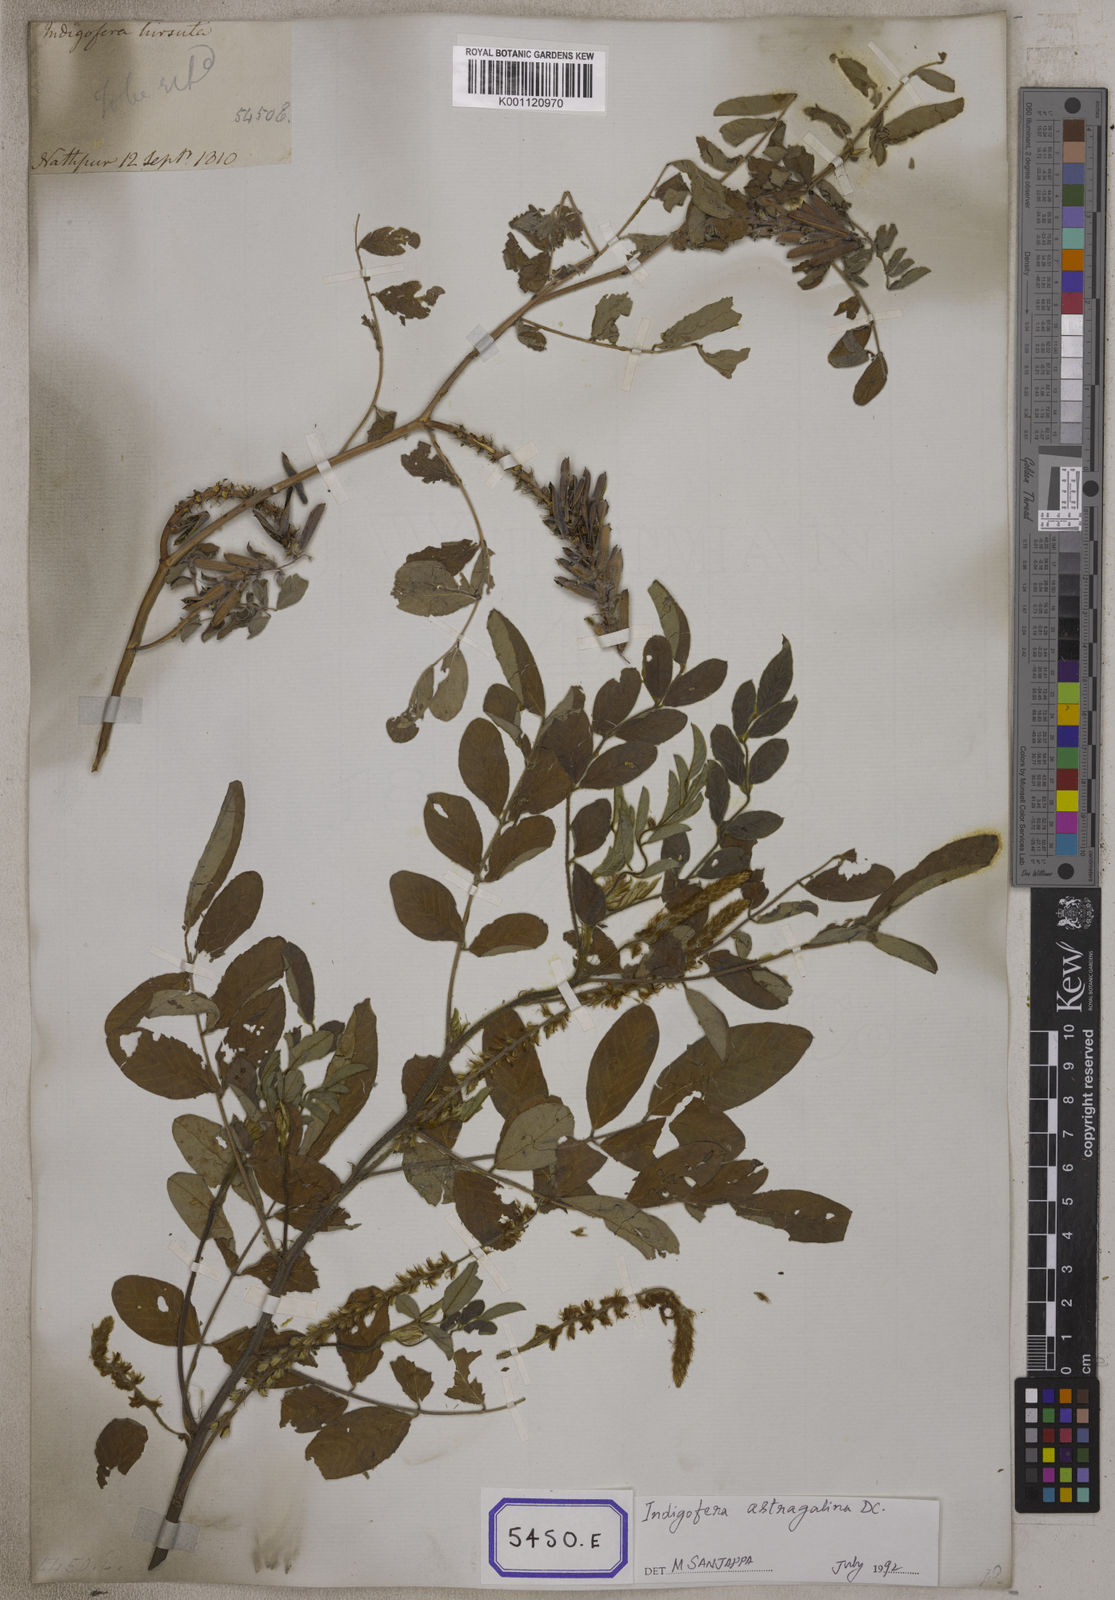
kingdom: Plantae
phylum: Tracheophyta
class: Magnoliopsida
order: Fabales
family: Fabaceae
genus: Indigofera
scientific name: Indigofera hirsuta
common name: Hairy indigo
